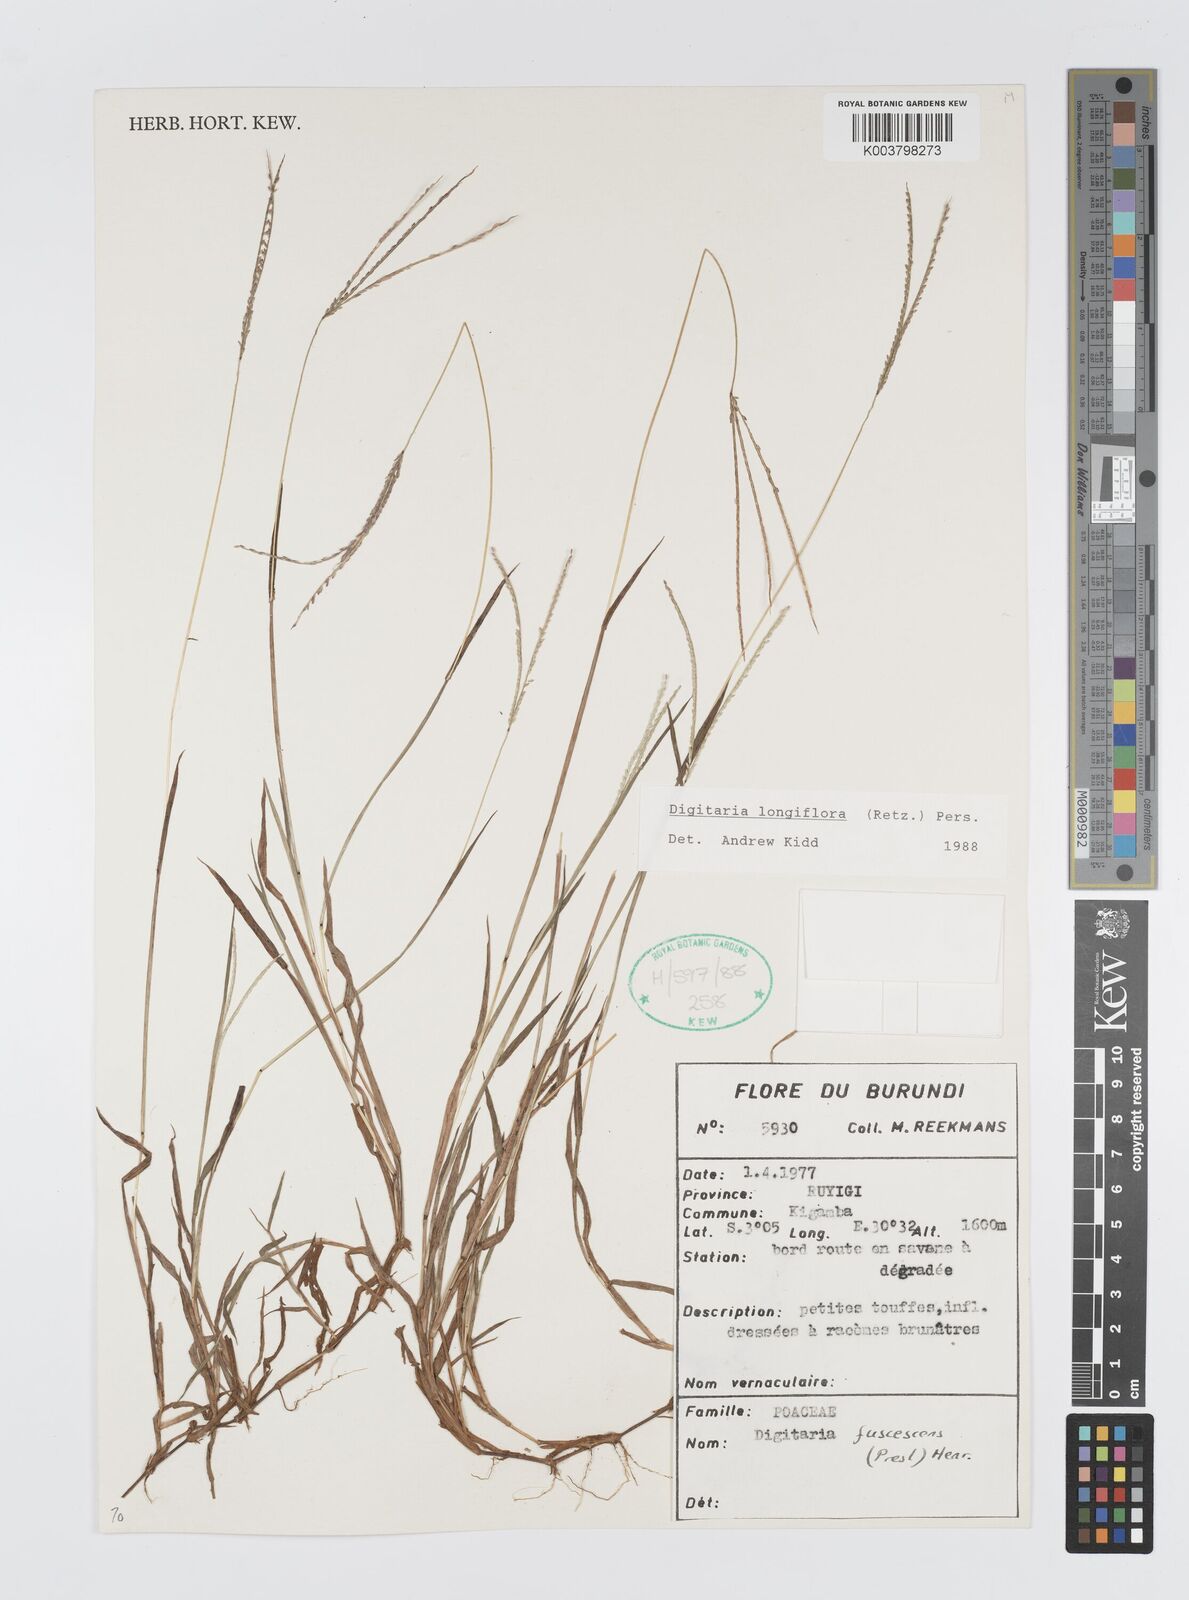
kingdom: Plantae
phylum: Tracheophyta
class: Liliopsida
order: Poales
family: Poaceae
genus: Digitaria
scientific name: Digitaria longiflora
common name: Wire crabgrass
